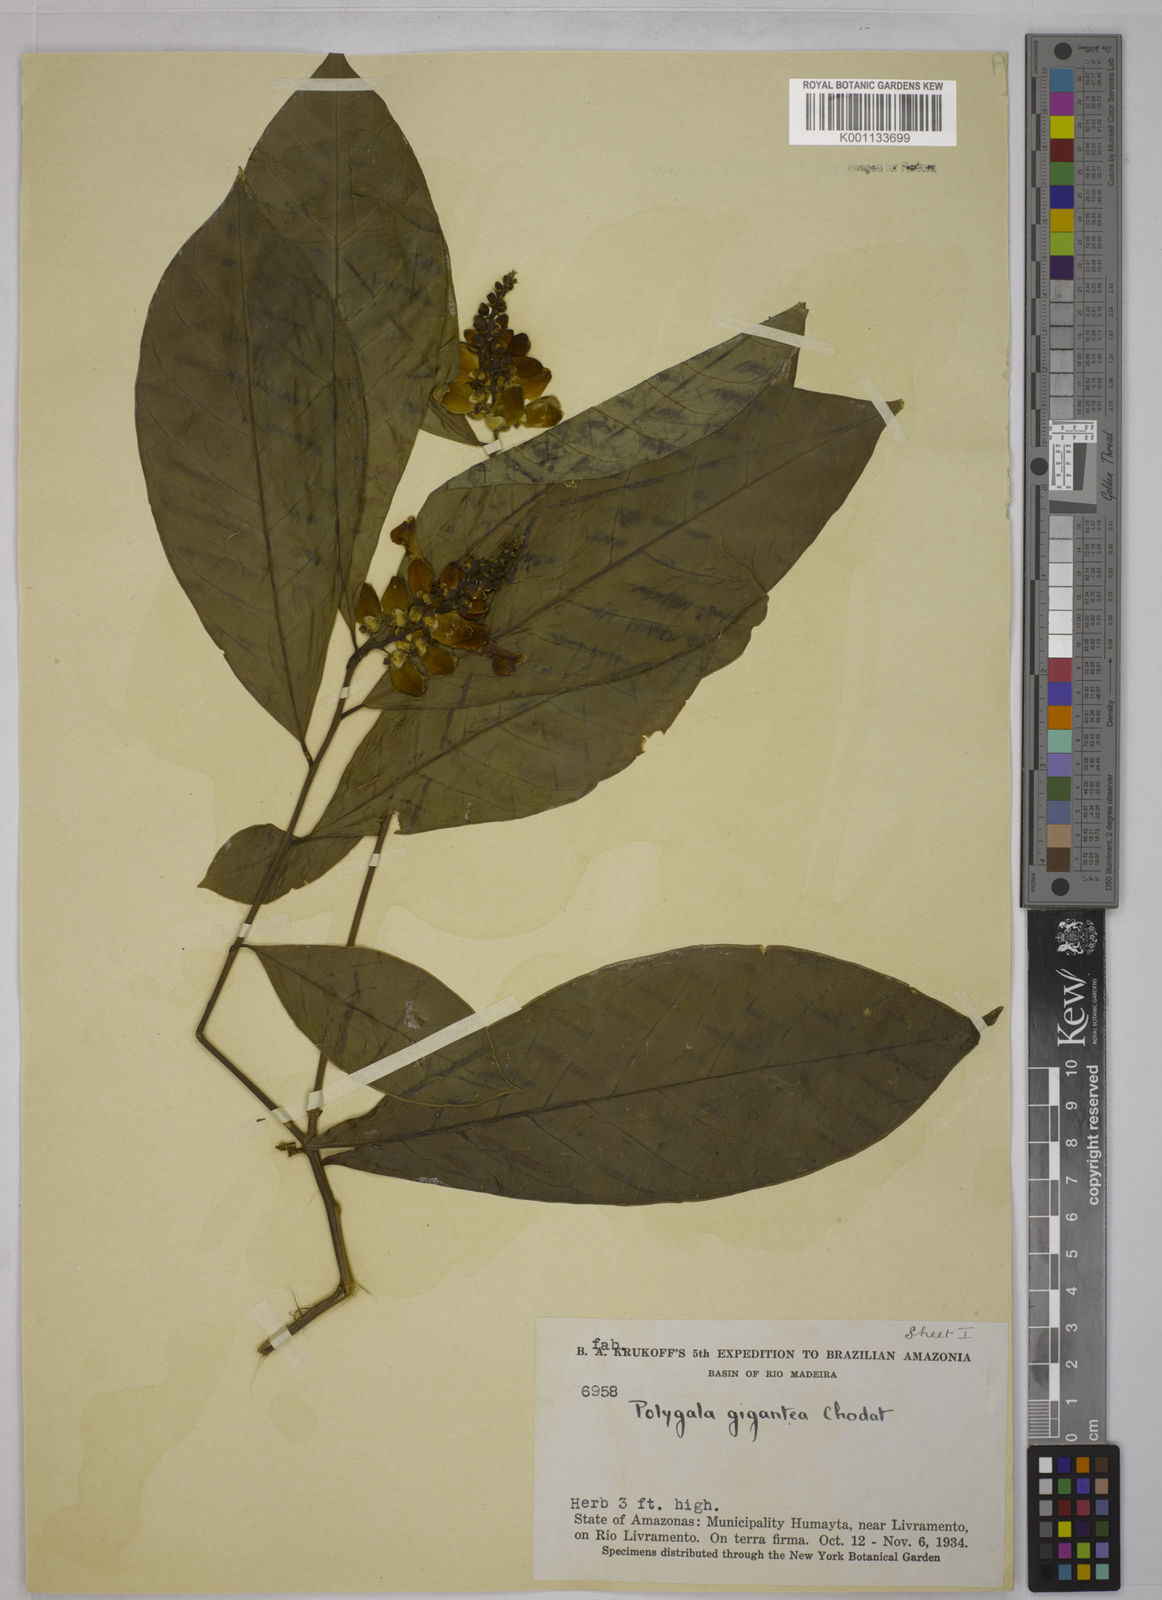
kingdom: Plantae
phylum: Tracheophyta
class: Magnoliopsida
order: Fabales
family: Polygalaceae
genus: Caamembeca
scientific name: Caamembeca gigantea
